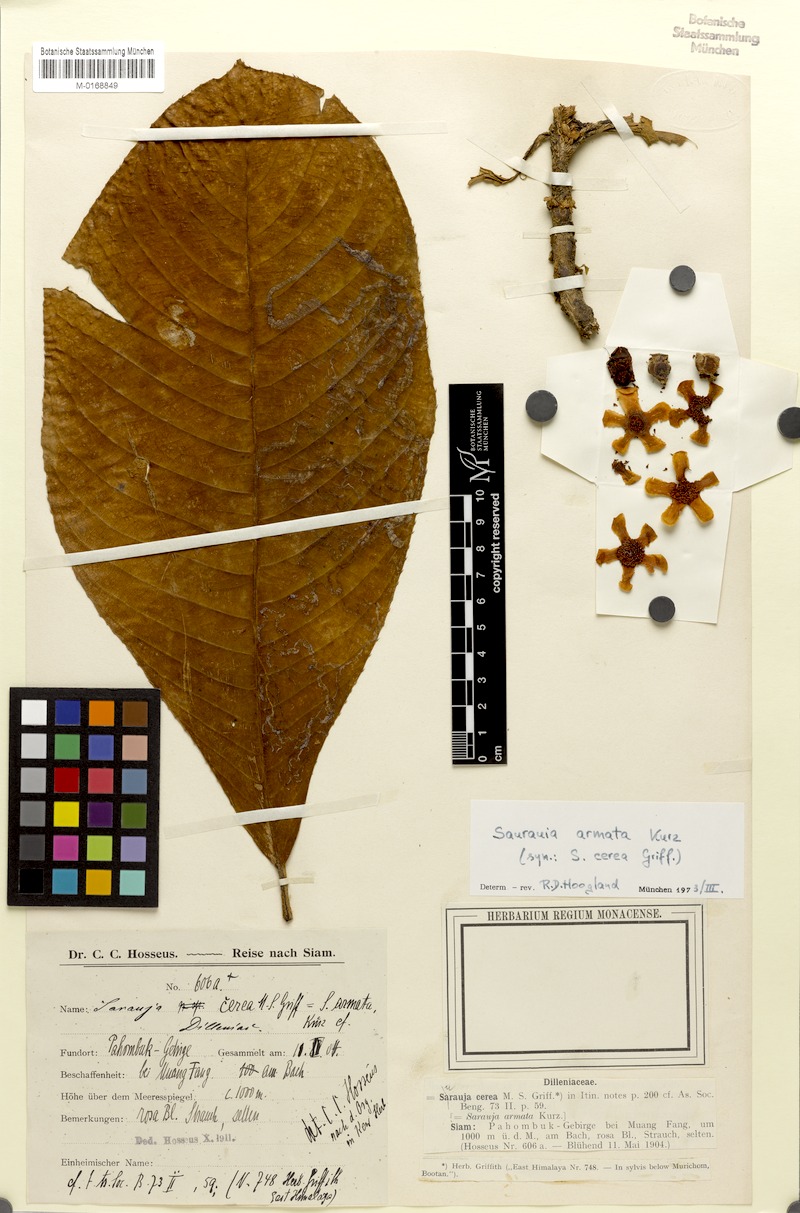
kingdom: Plantae
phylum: Tracheophyta
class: Magnoliopsida
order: Ericales
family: Actinidiaceae
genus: Saurauia
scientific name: Saurauia armata
